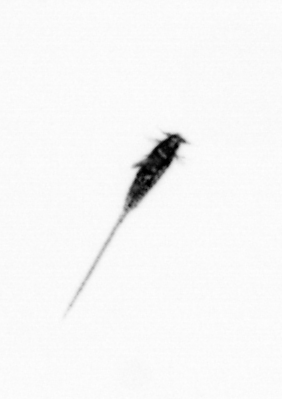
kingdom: Animalia
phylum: Arthropoda
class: Copepoda
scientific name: Copepoda
